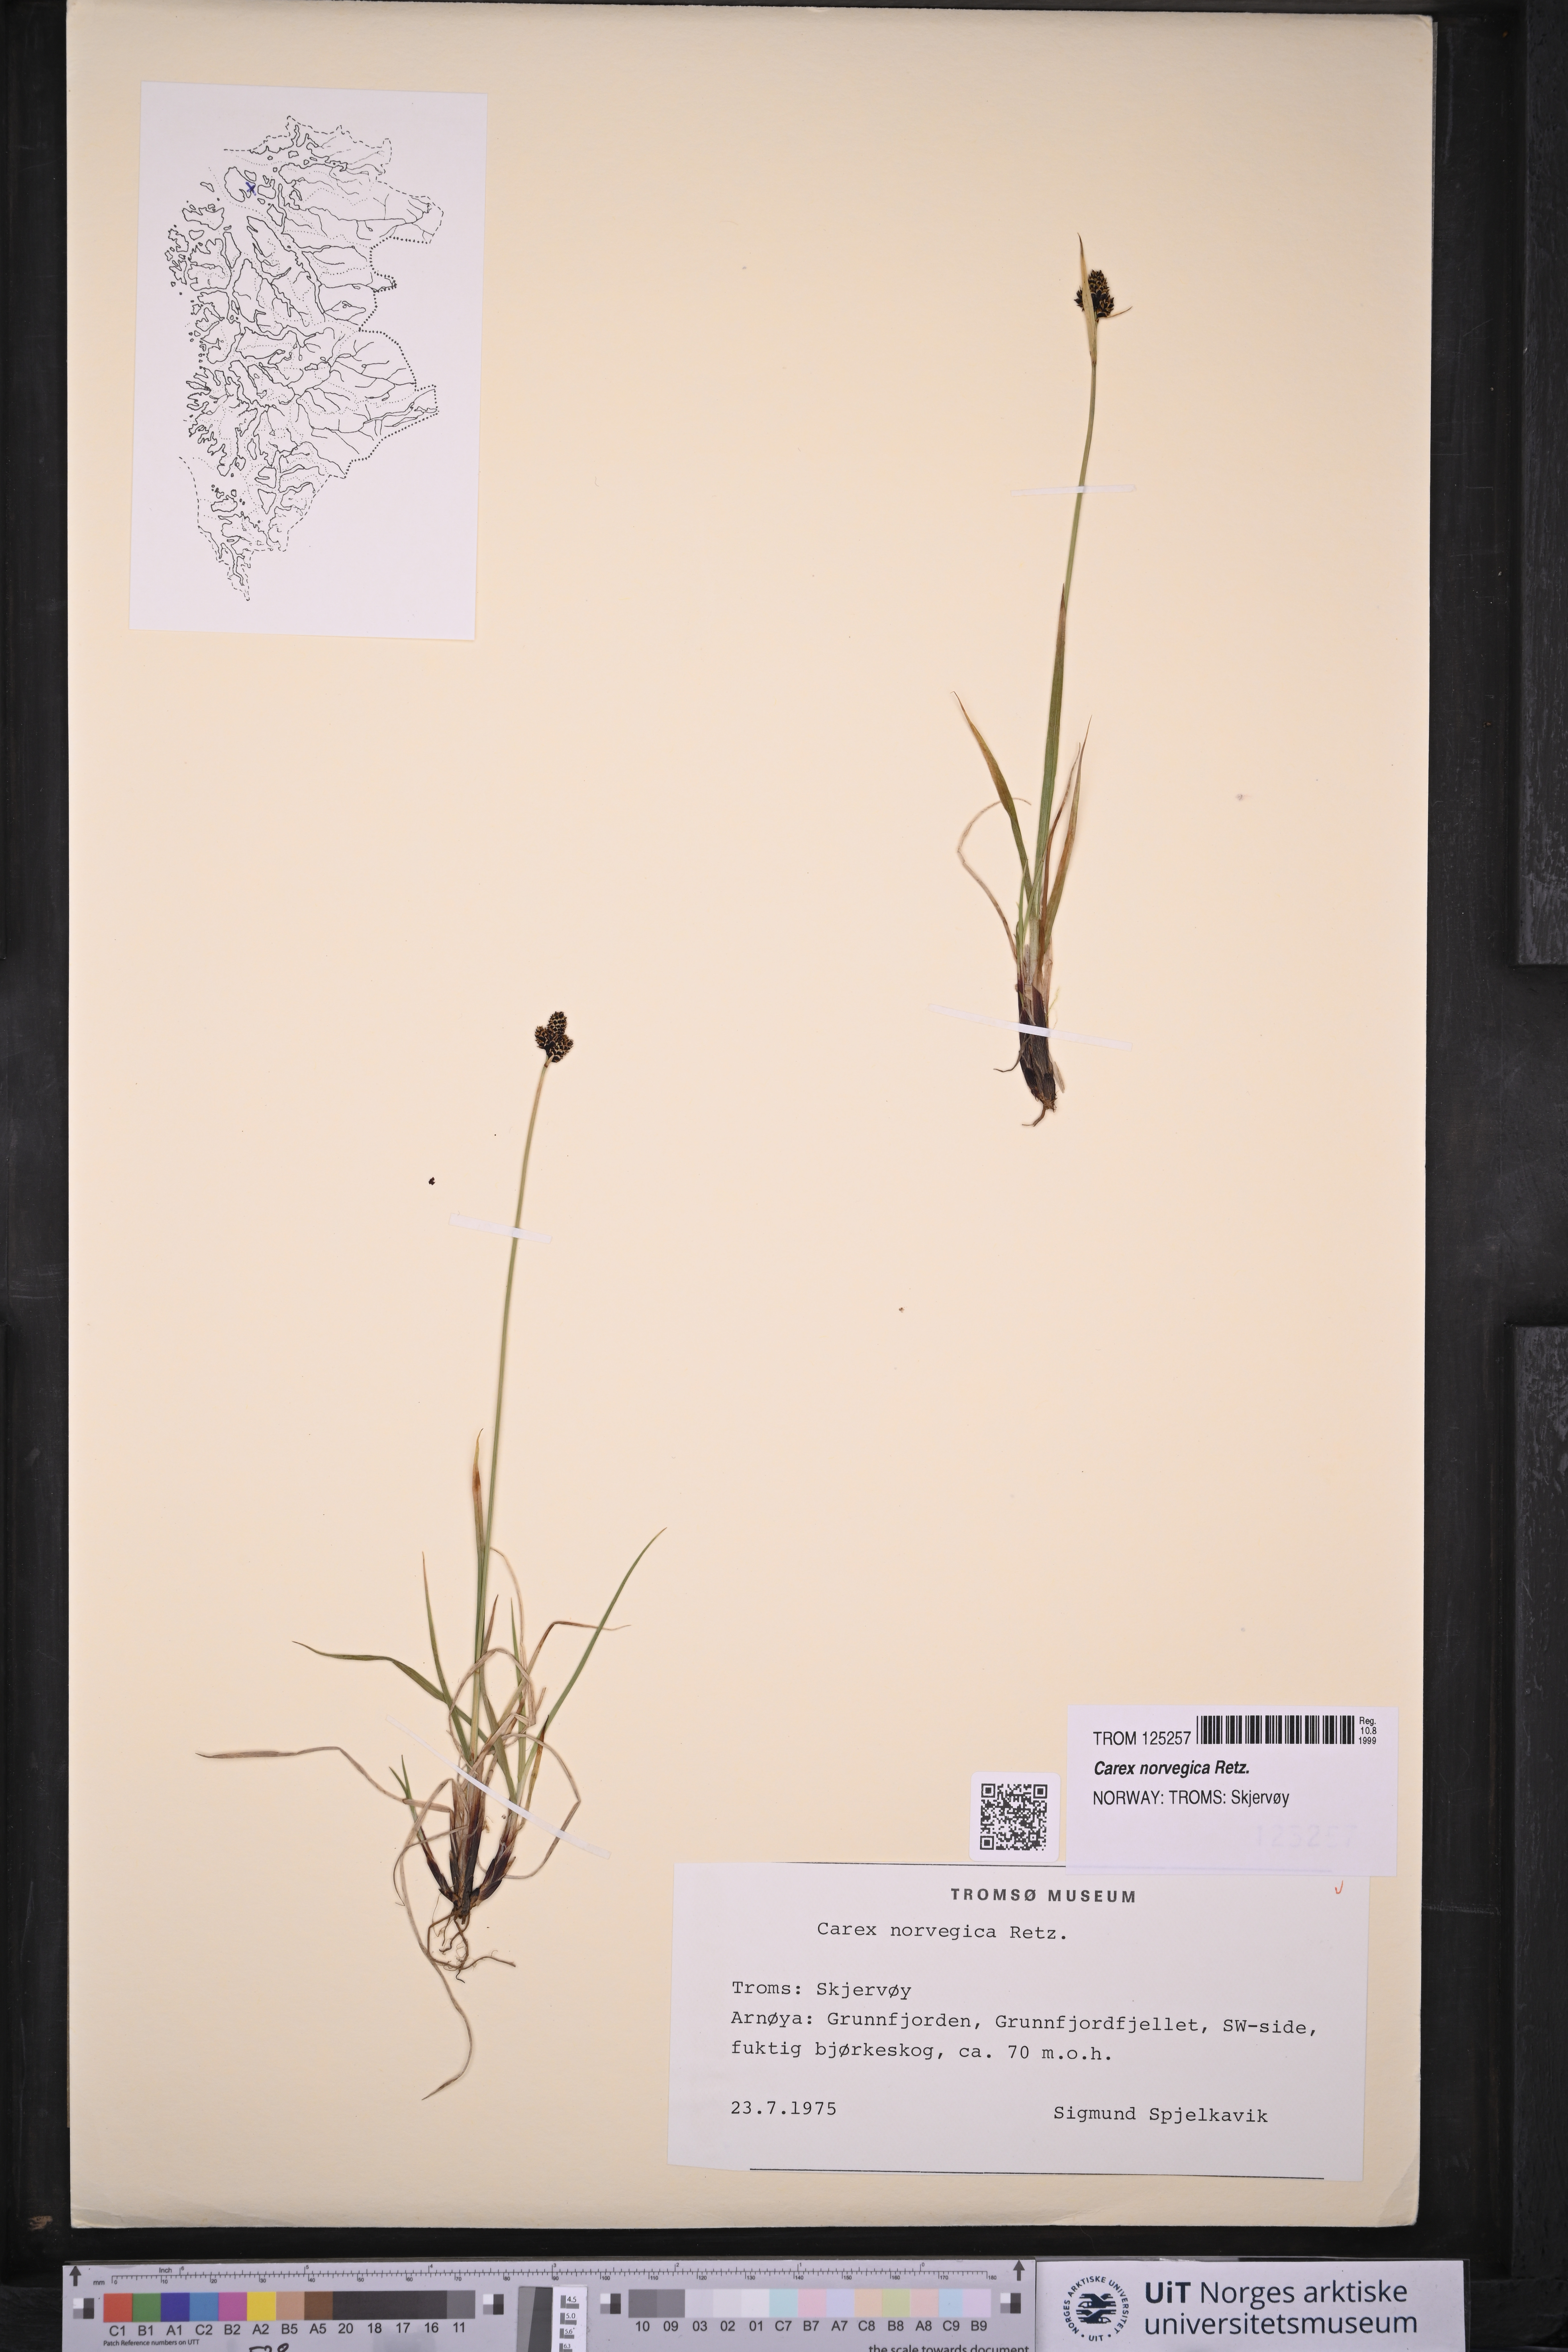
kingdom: Plantae
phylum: Tracheophyta
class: Liliopsida
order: Poales
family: Cyperaceae
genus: Carex
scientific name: Carex norvegica
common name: Close-headed alpine-sedge
